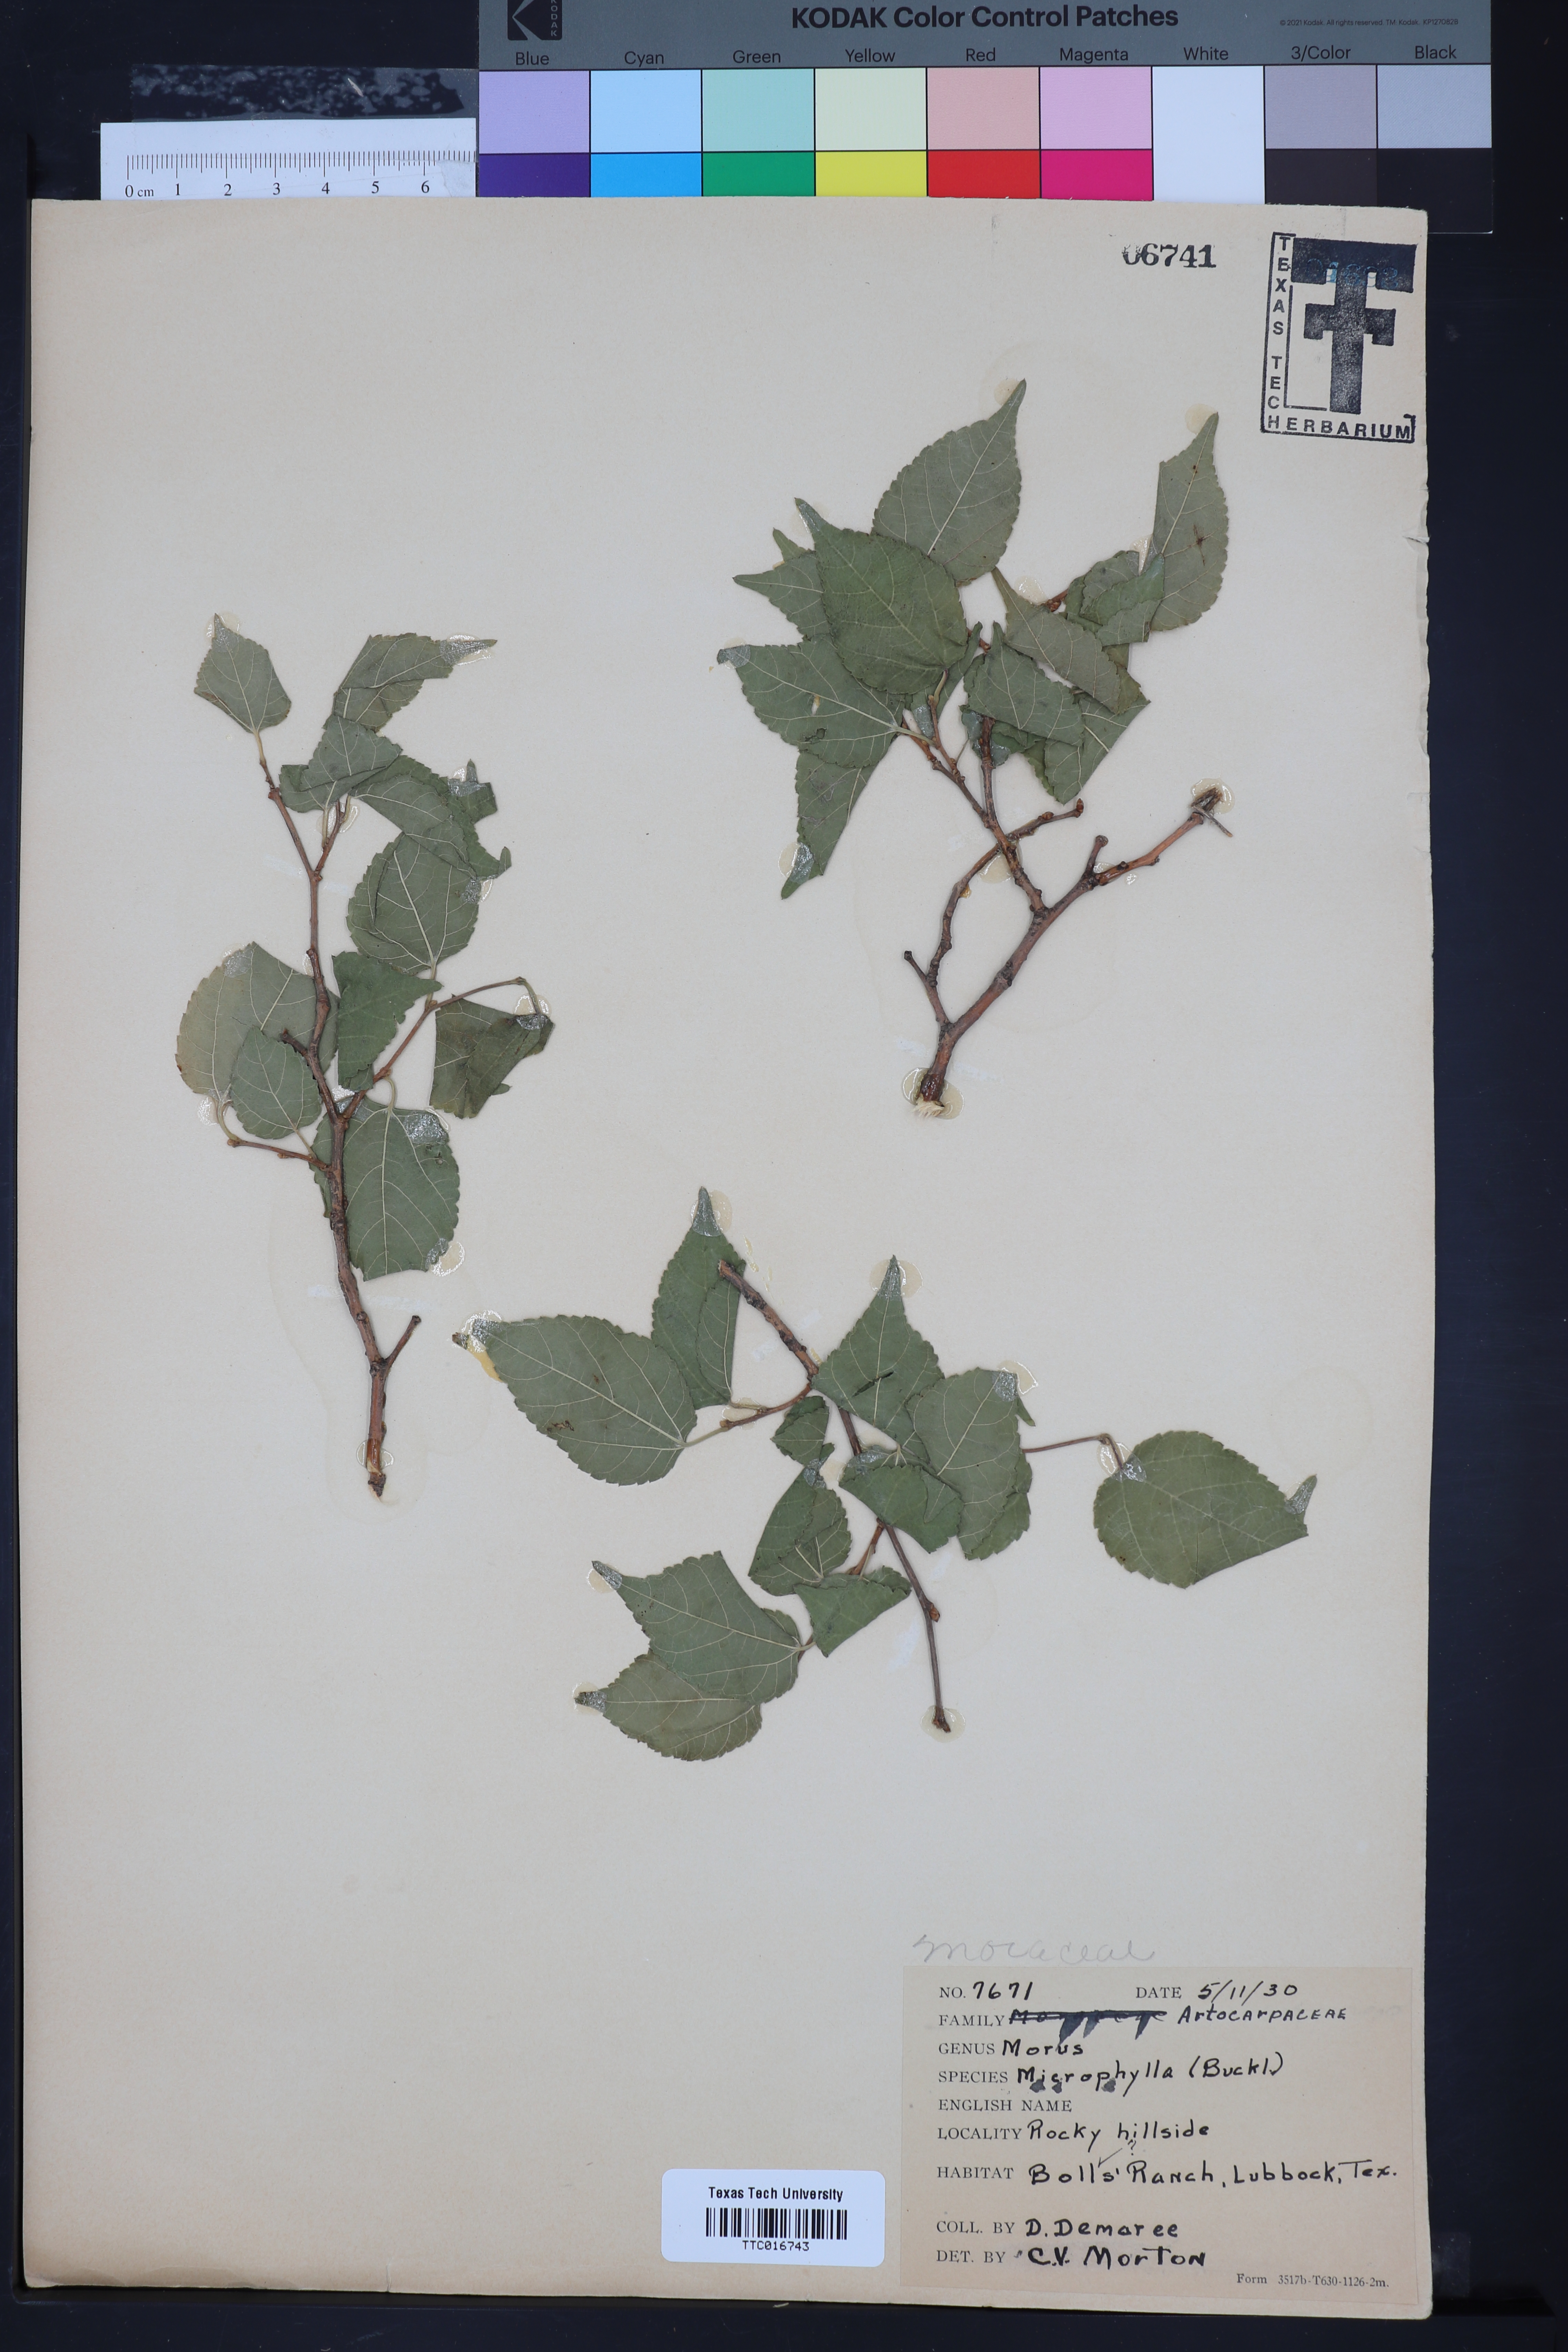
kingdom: Plantae
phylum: Tracheophyta
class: Magnoliopsida
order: Rosales
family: Moraceae
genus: Morus
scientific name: Morus microphylla
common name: Mexican mulberry
